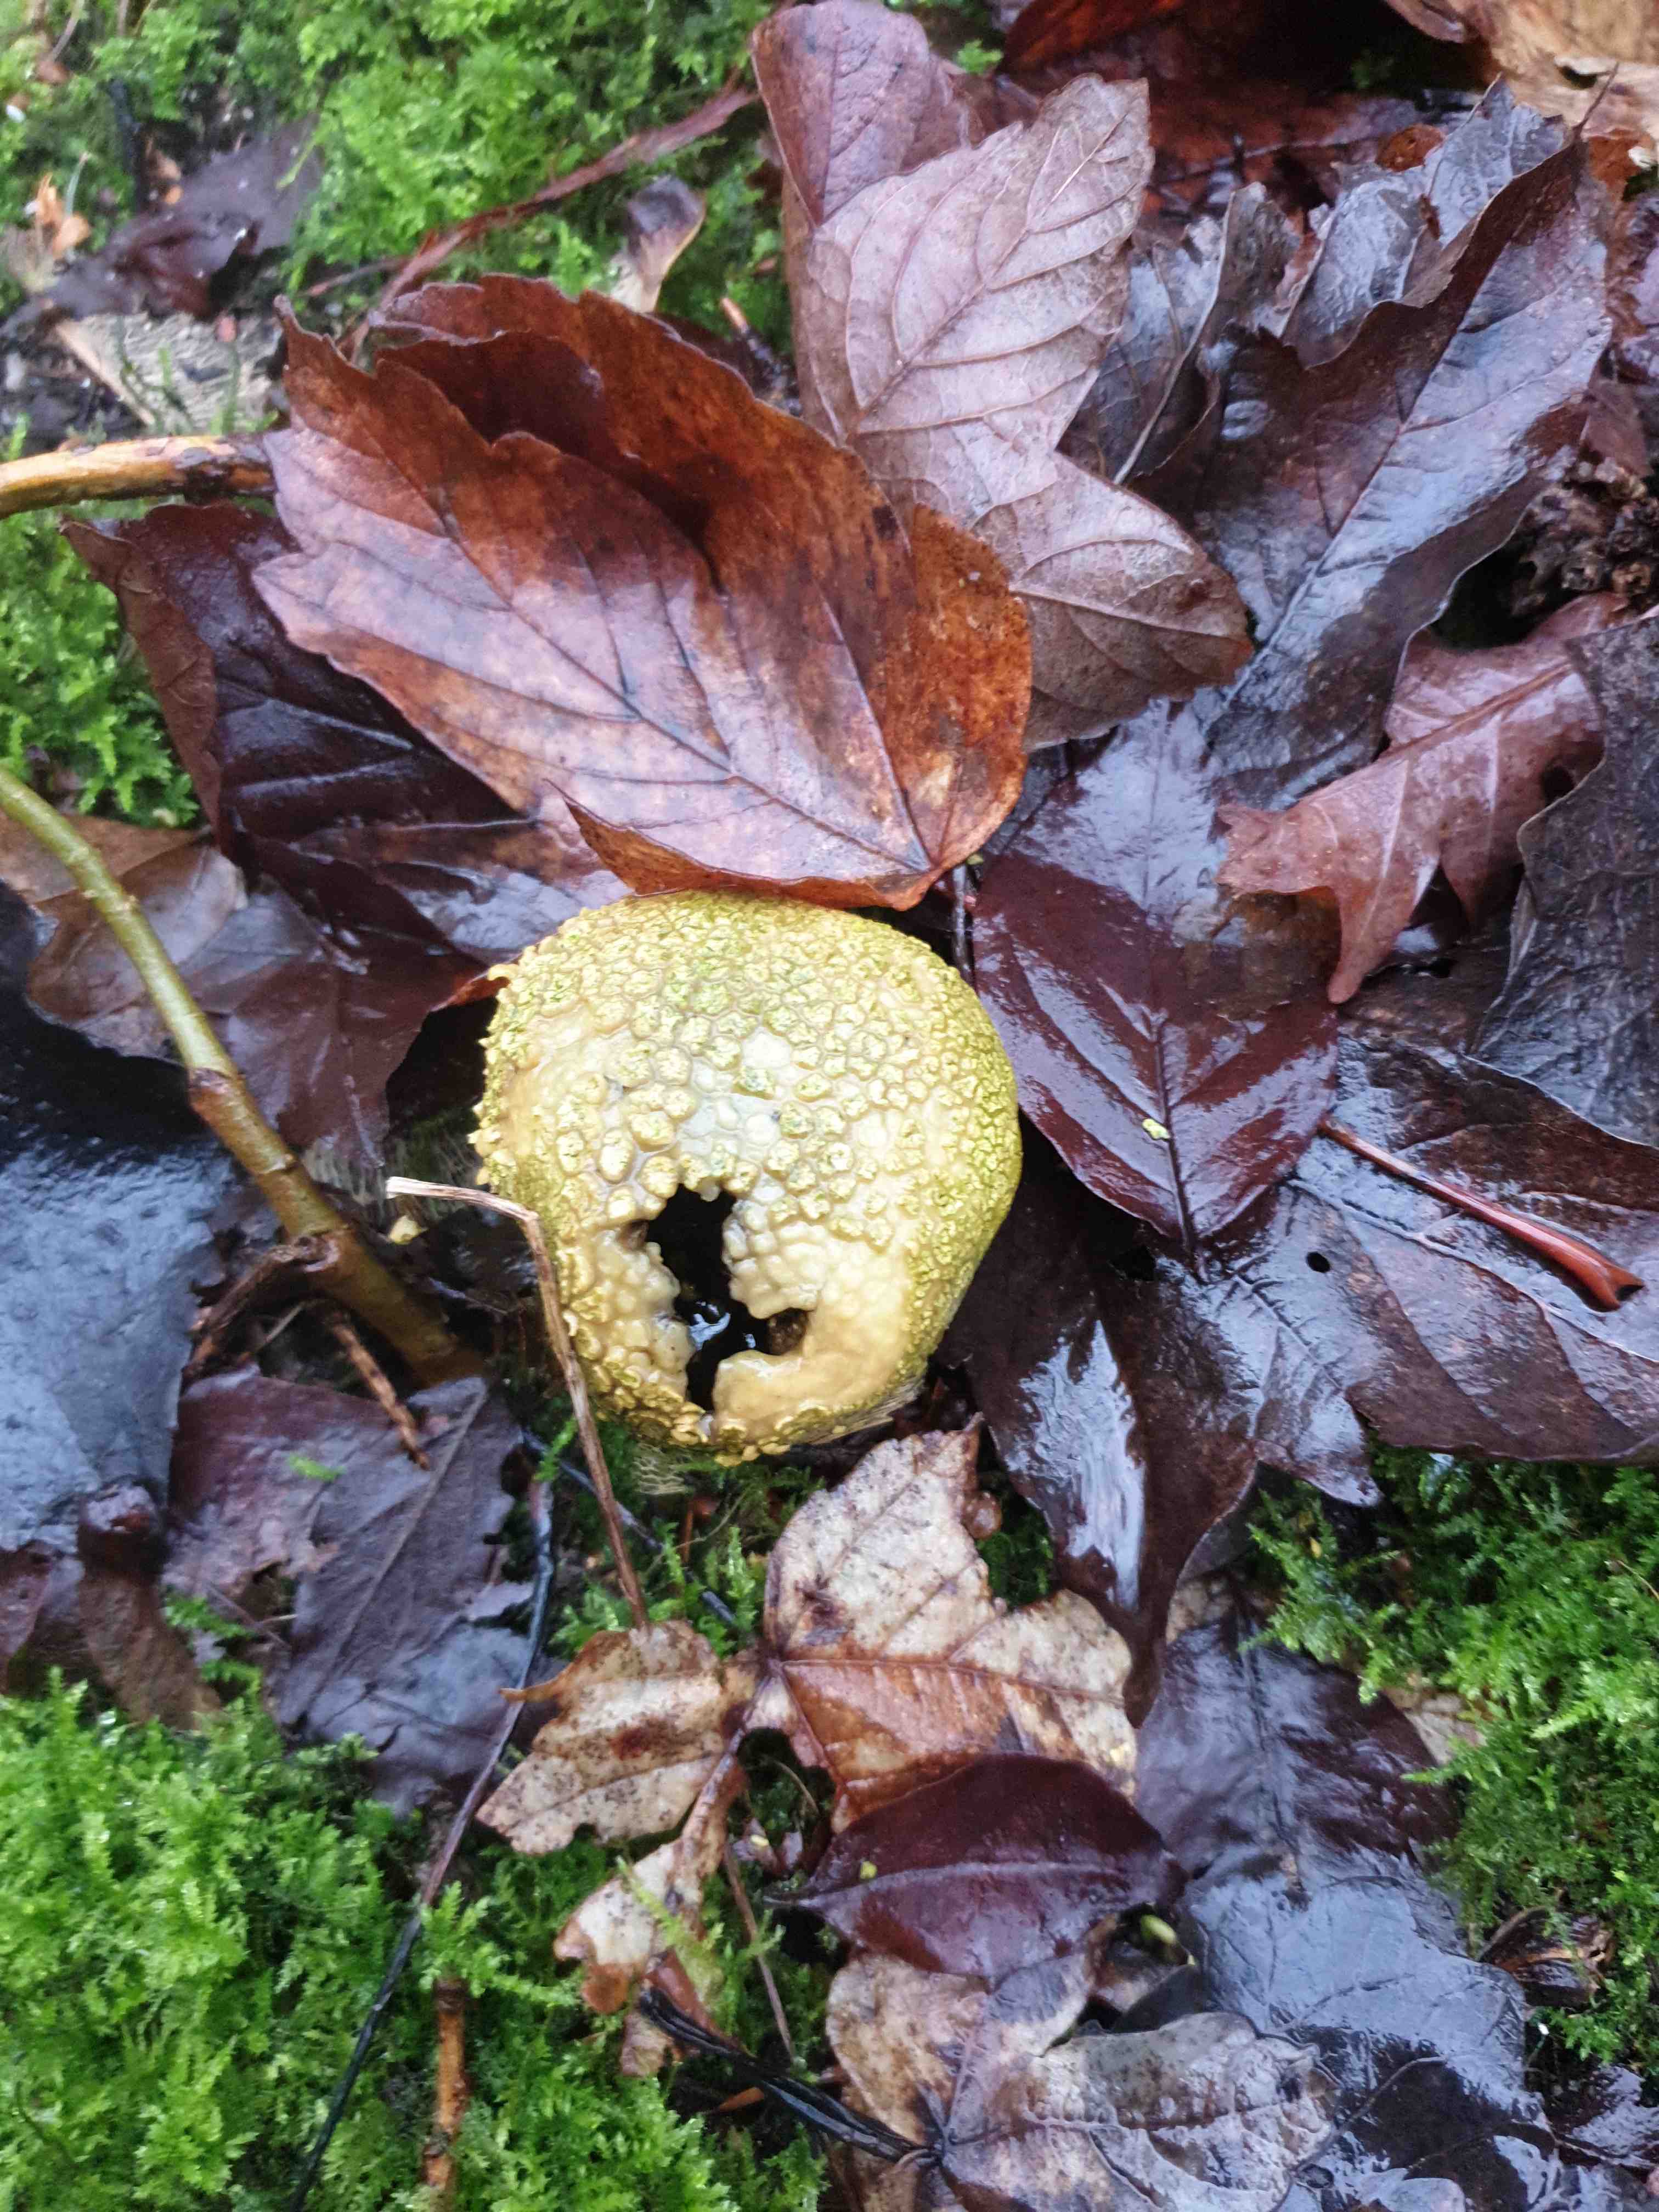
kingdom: Fungi
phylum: Basidiomycota
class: Agaricomycetes
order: Boletales
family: Sclerodermataceae
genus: Scleroderma
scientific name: Scleroderma citrinum
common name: almindelig bruskbold
